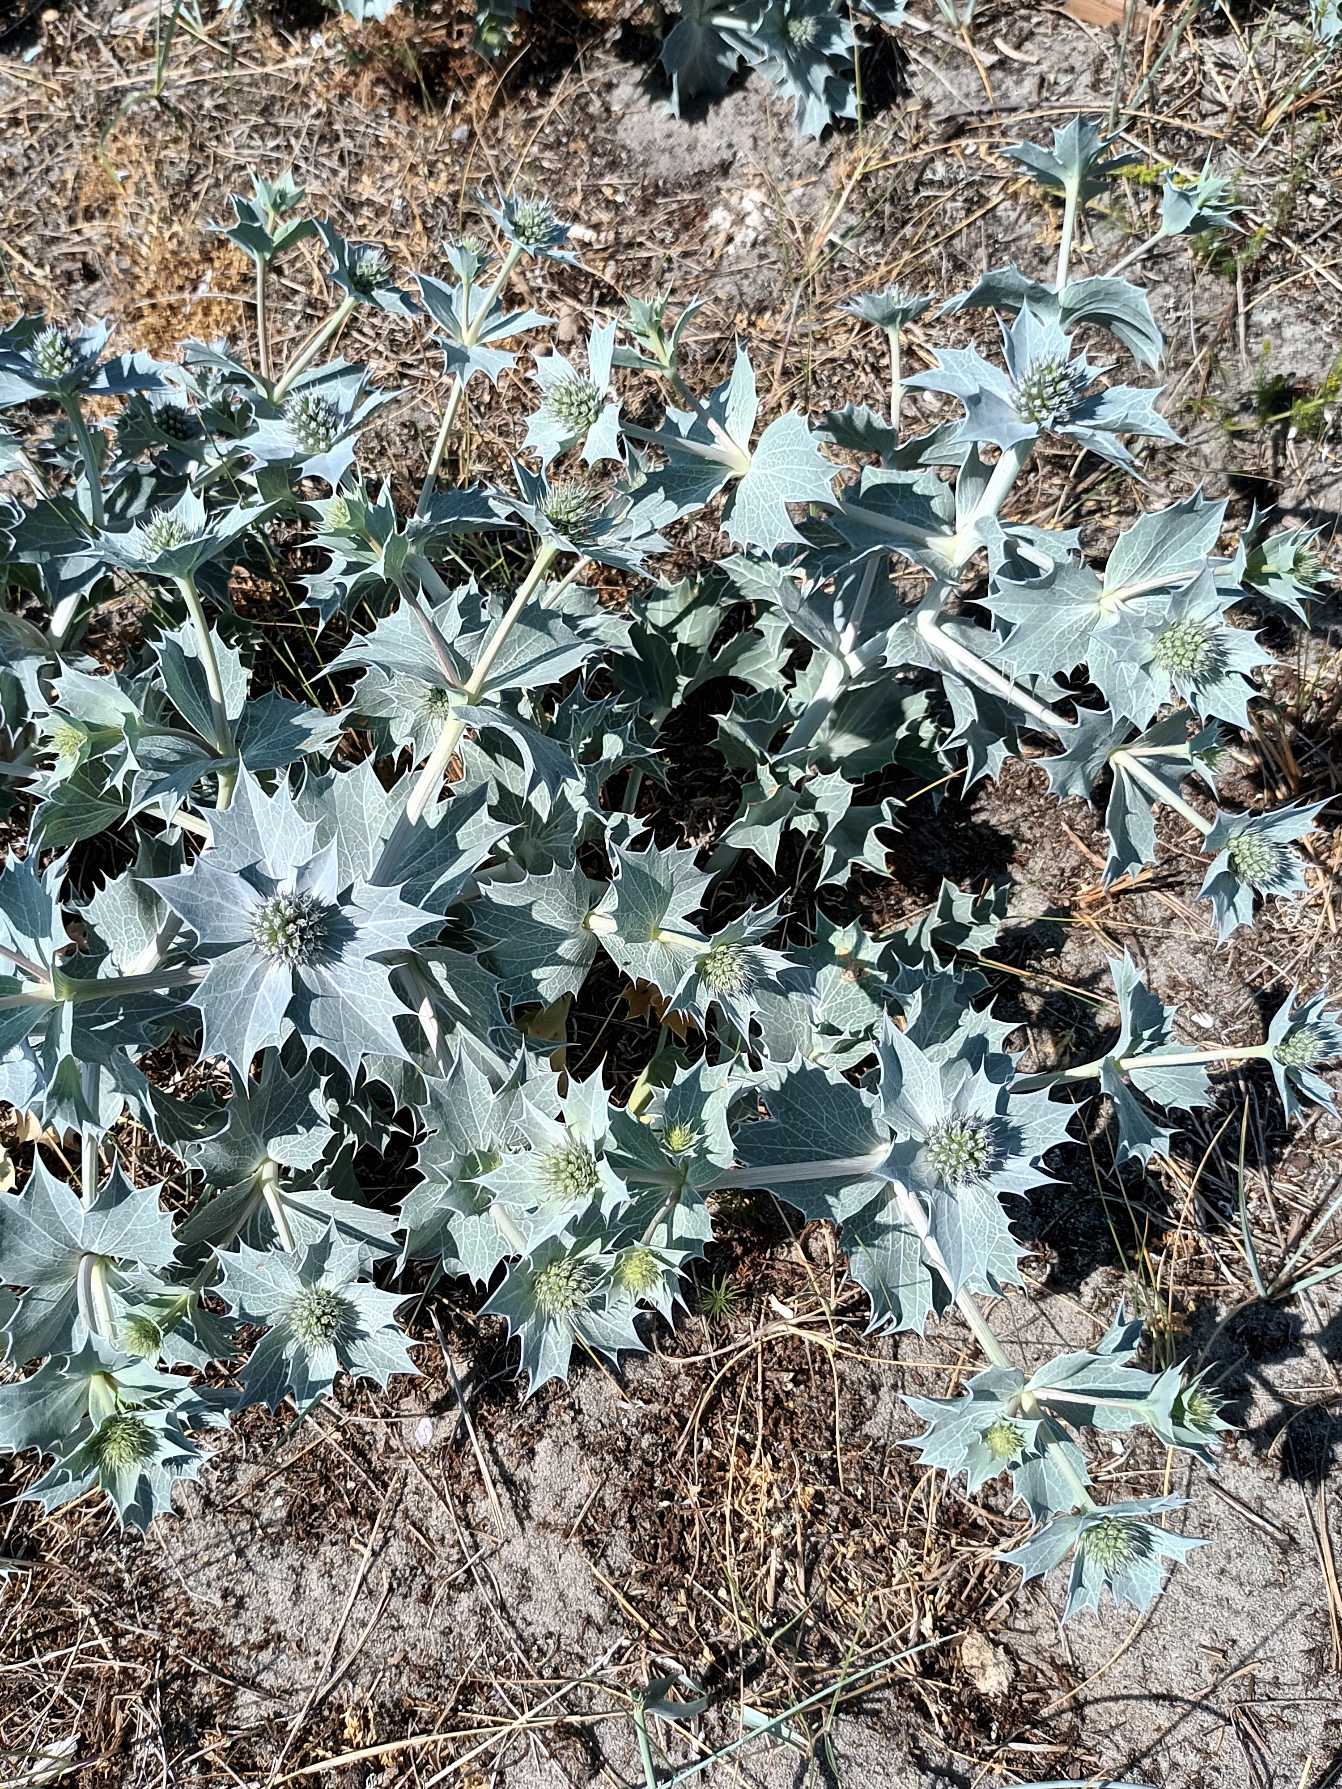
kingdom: Plantae
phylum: Tracheophyta
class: Magnoliopsida
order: Apiales
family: Apiaceae
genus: Eryngium
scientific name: Eryngium maritimum
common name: Strand-mandstro
